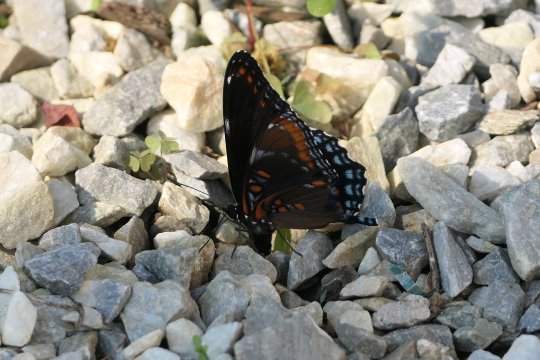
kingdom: Animalia
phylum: Arthropoda
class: Insecta
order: Lepidoptera
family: Nymphalidae
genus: Limenitis
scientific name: Limenitis arthemis
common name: Red-spotted Admiral
